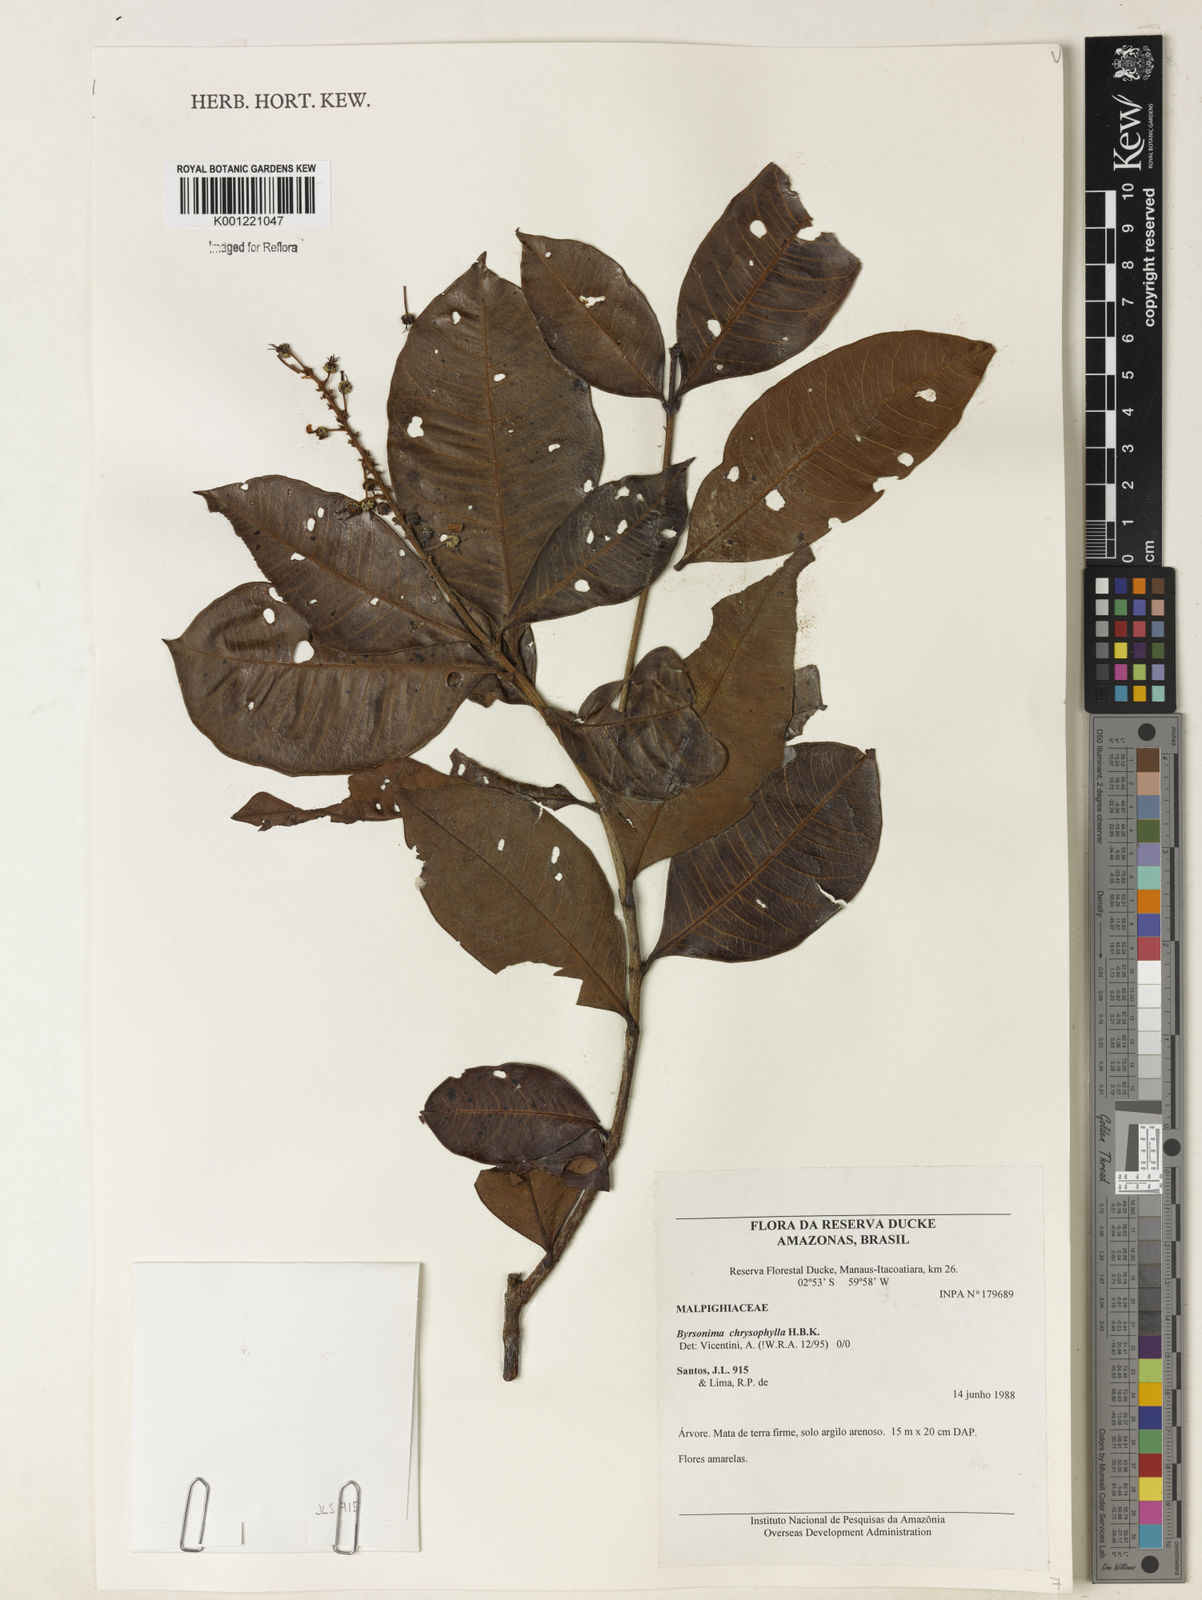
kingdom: Plantae
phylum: Tracheophyta
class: Magnoliopsida
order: Malpighiales
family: Malpighiaceae
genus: Byrsonima
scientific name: Byrsonima chrysophylla
